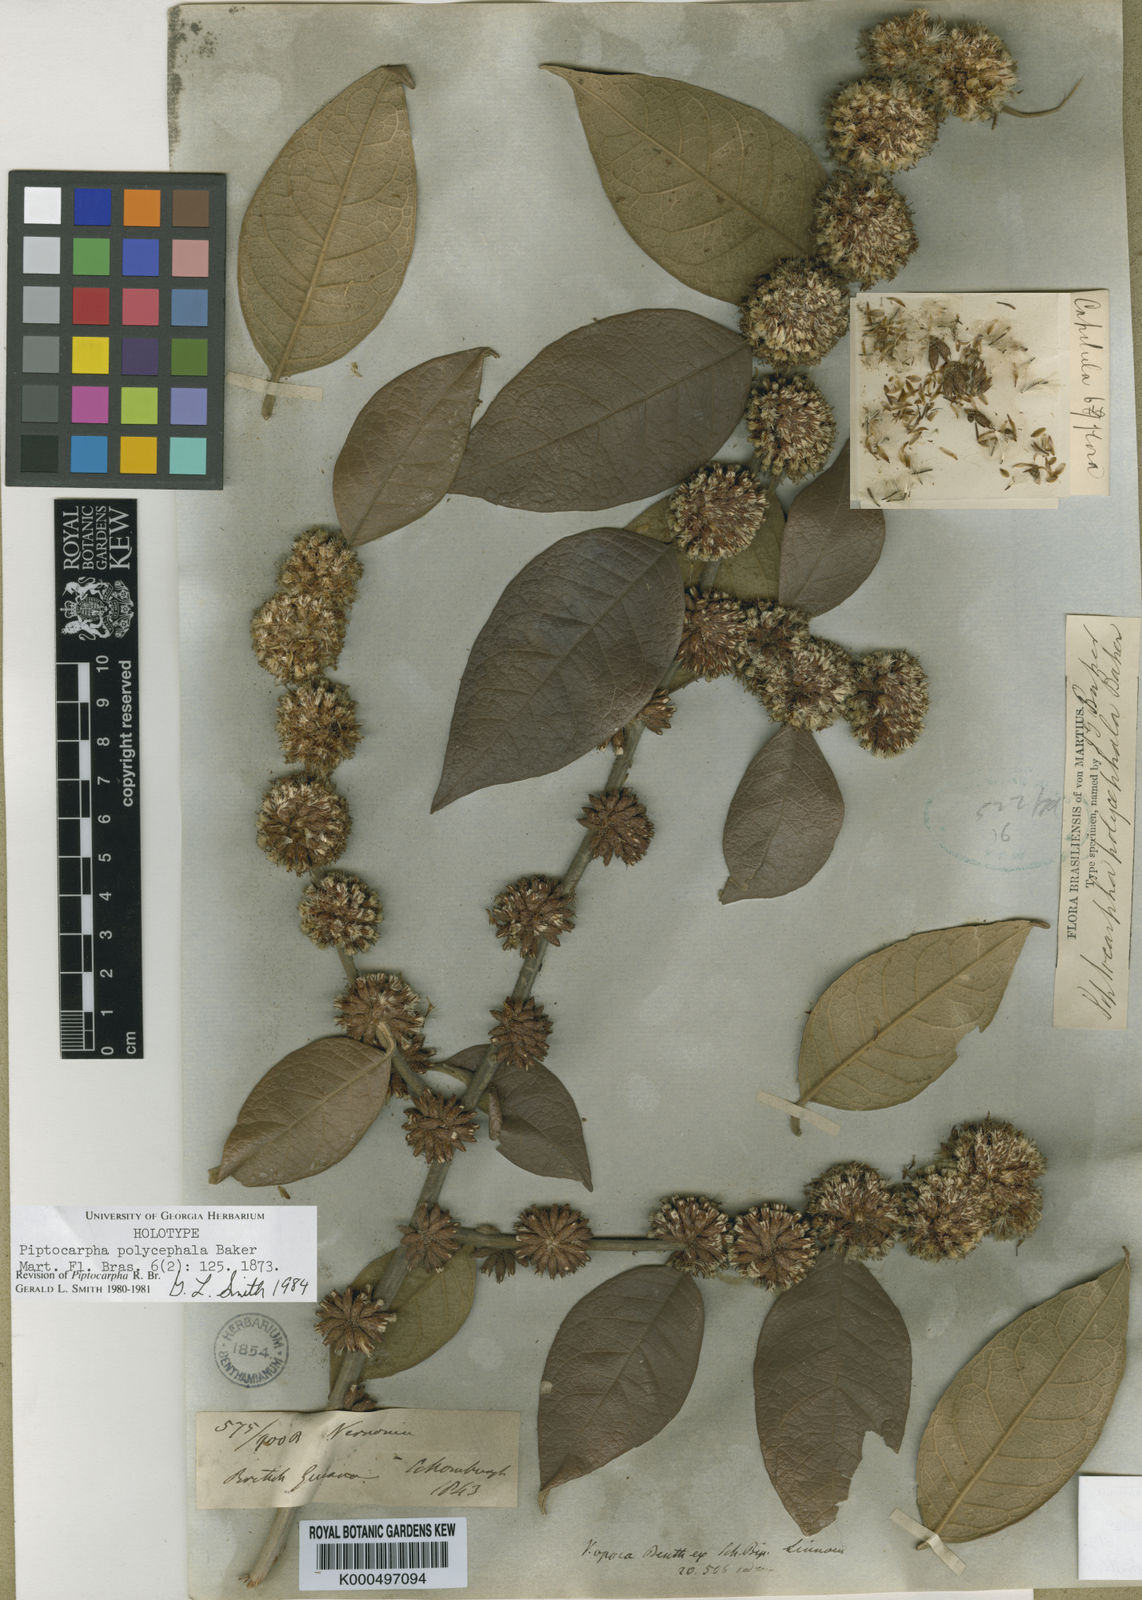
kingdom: Plantae
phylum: Tracheophyta
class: Magnoliopsida
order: Asterales
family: Asteraceae
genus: Piptocarpha
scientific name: Piptocarpha polycephala
